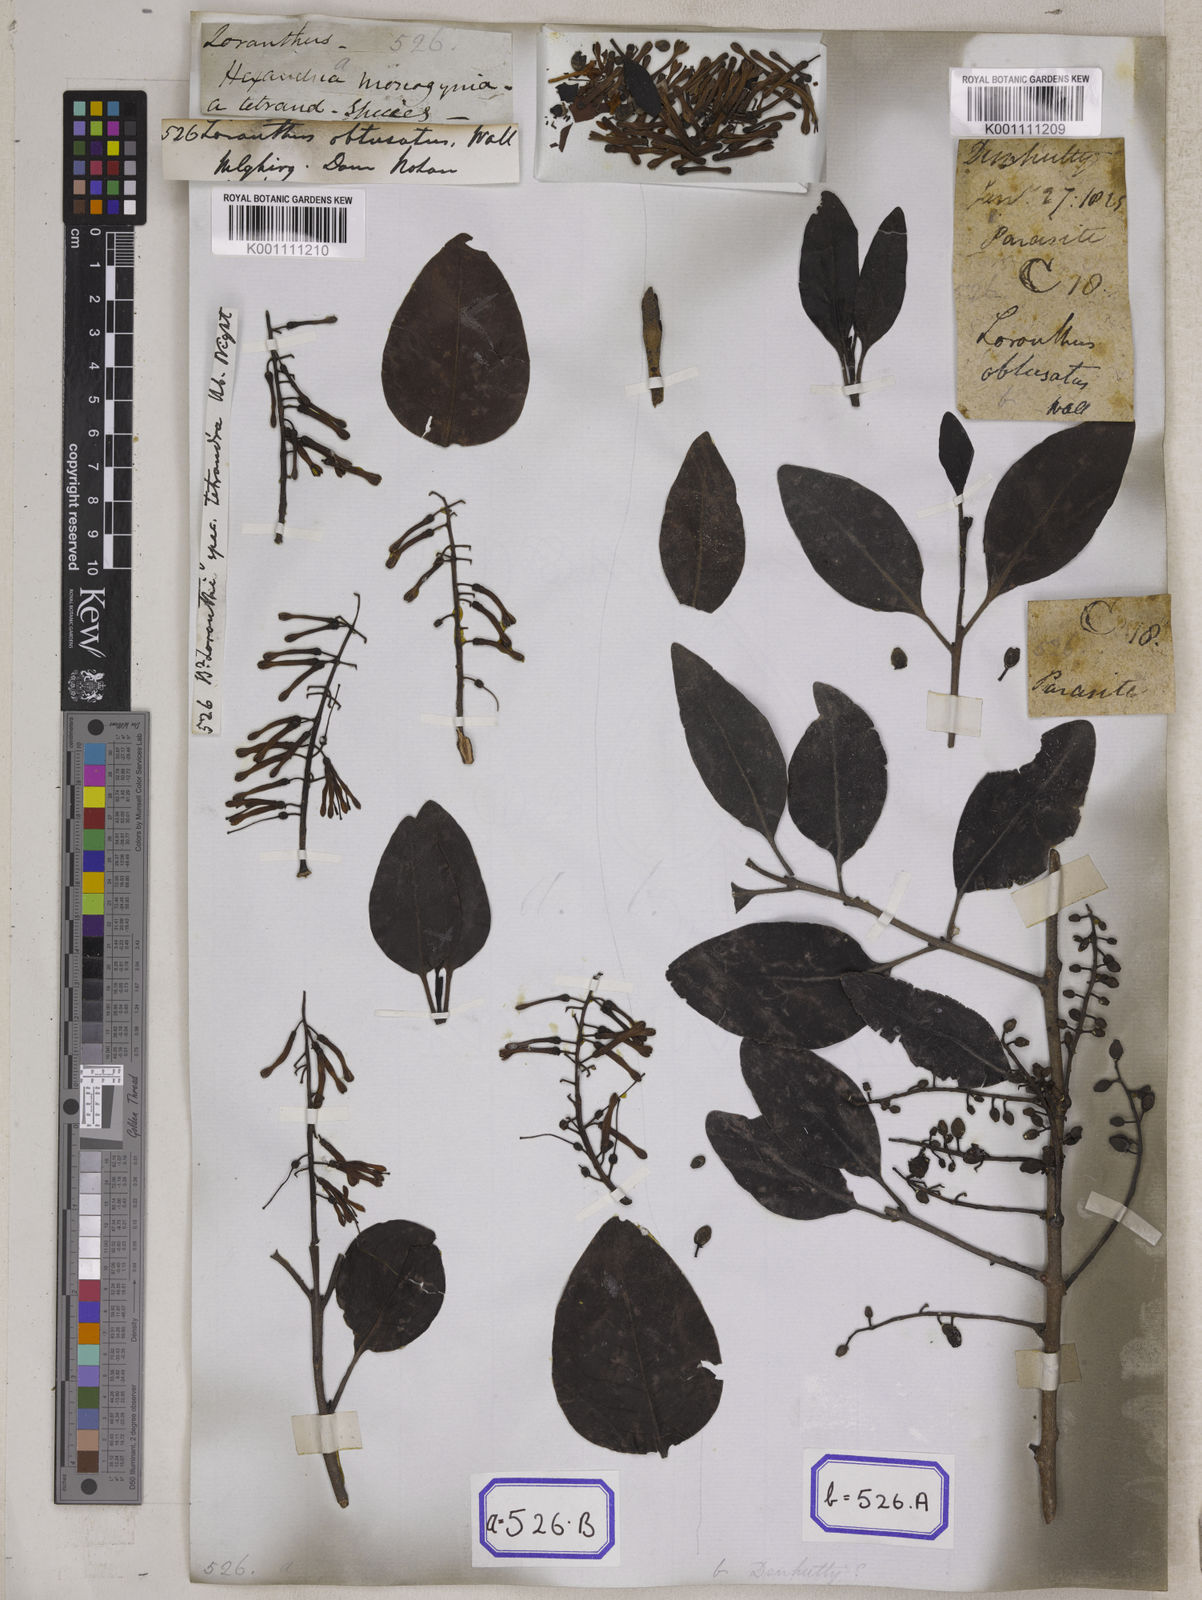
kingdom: Plantae
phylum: Tracheophyta
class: Magnoliopsida
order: Santalales
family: Loranthaceae
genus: Loranthus
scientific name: Loranthus
